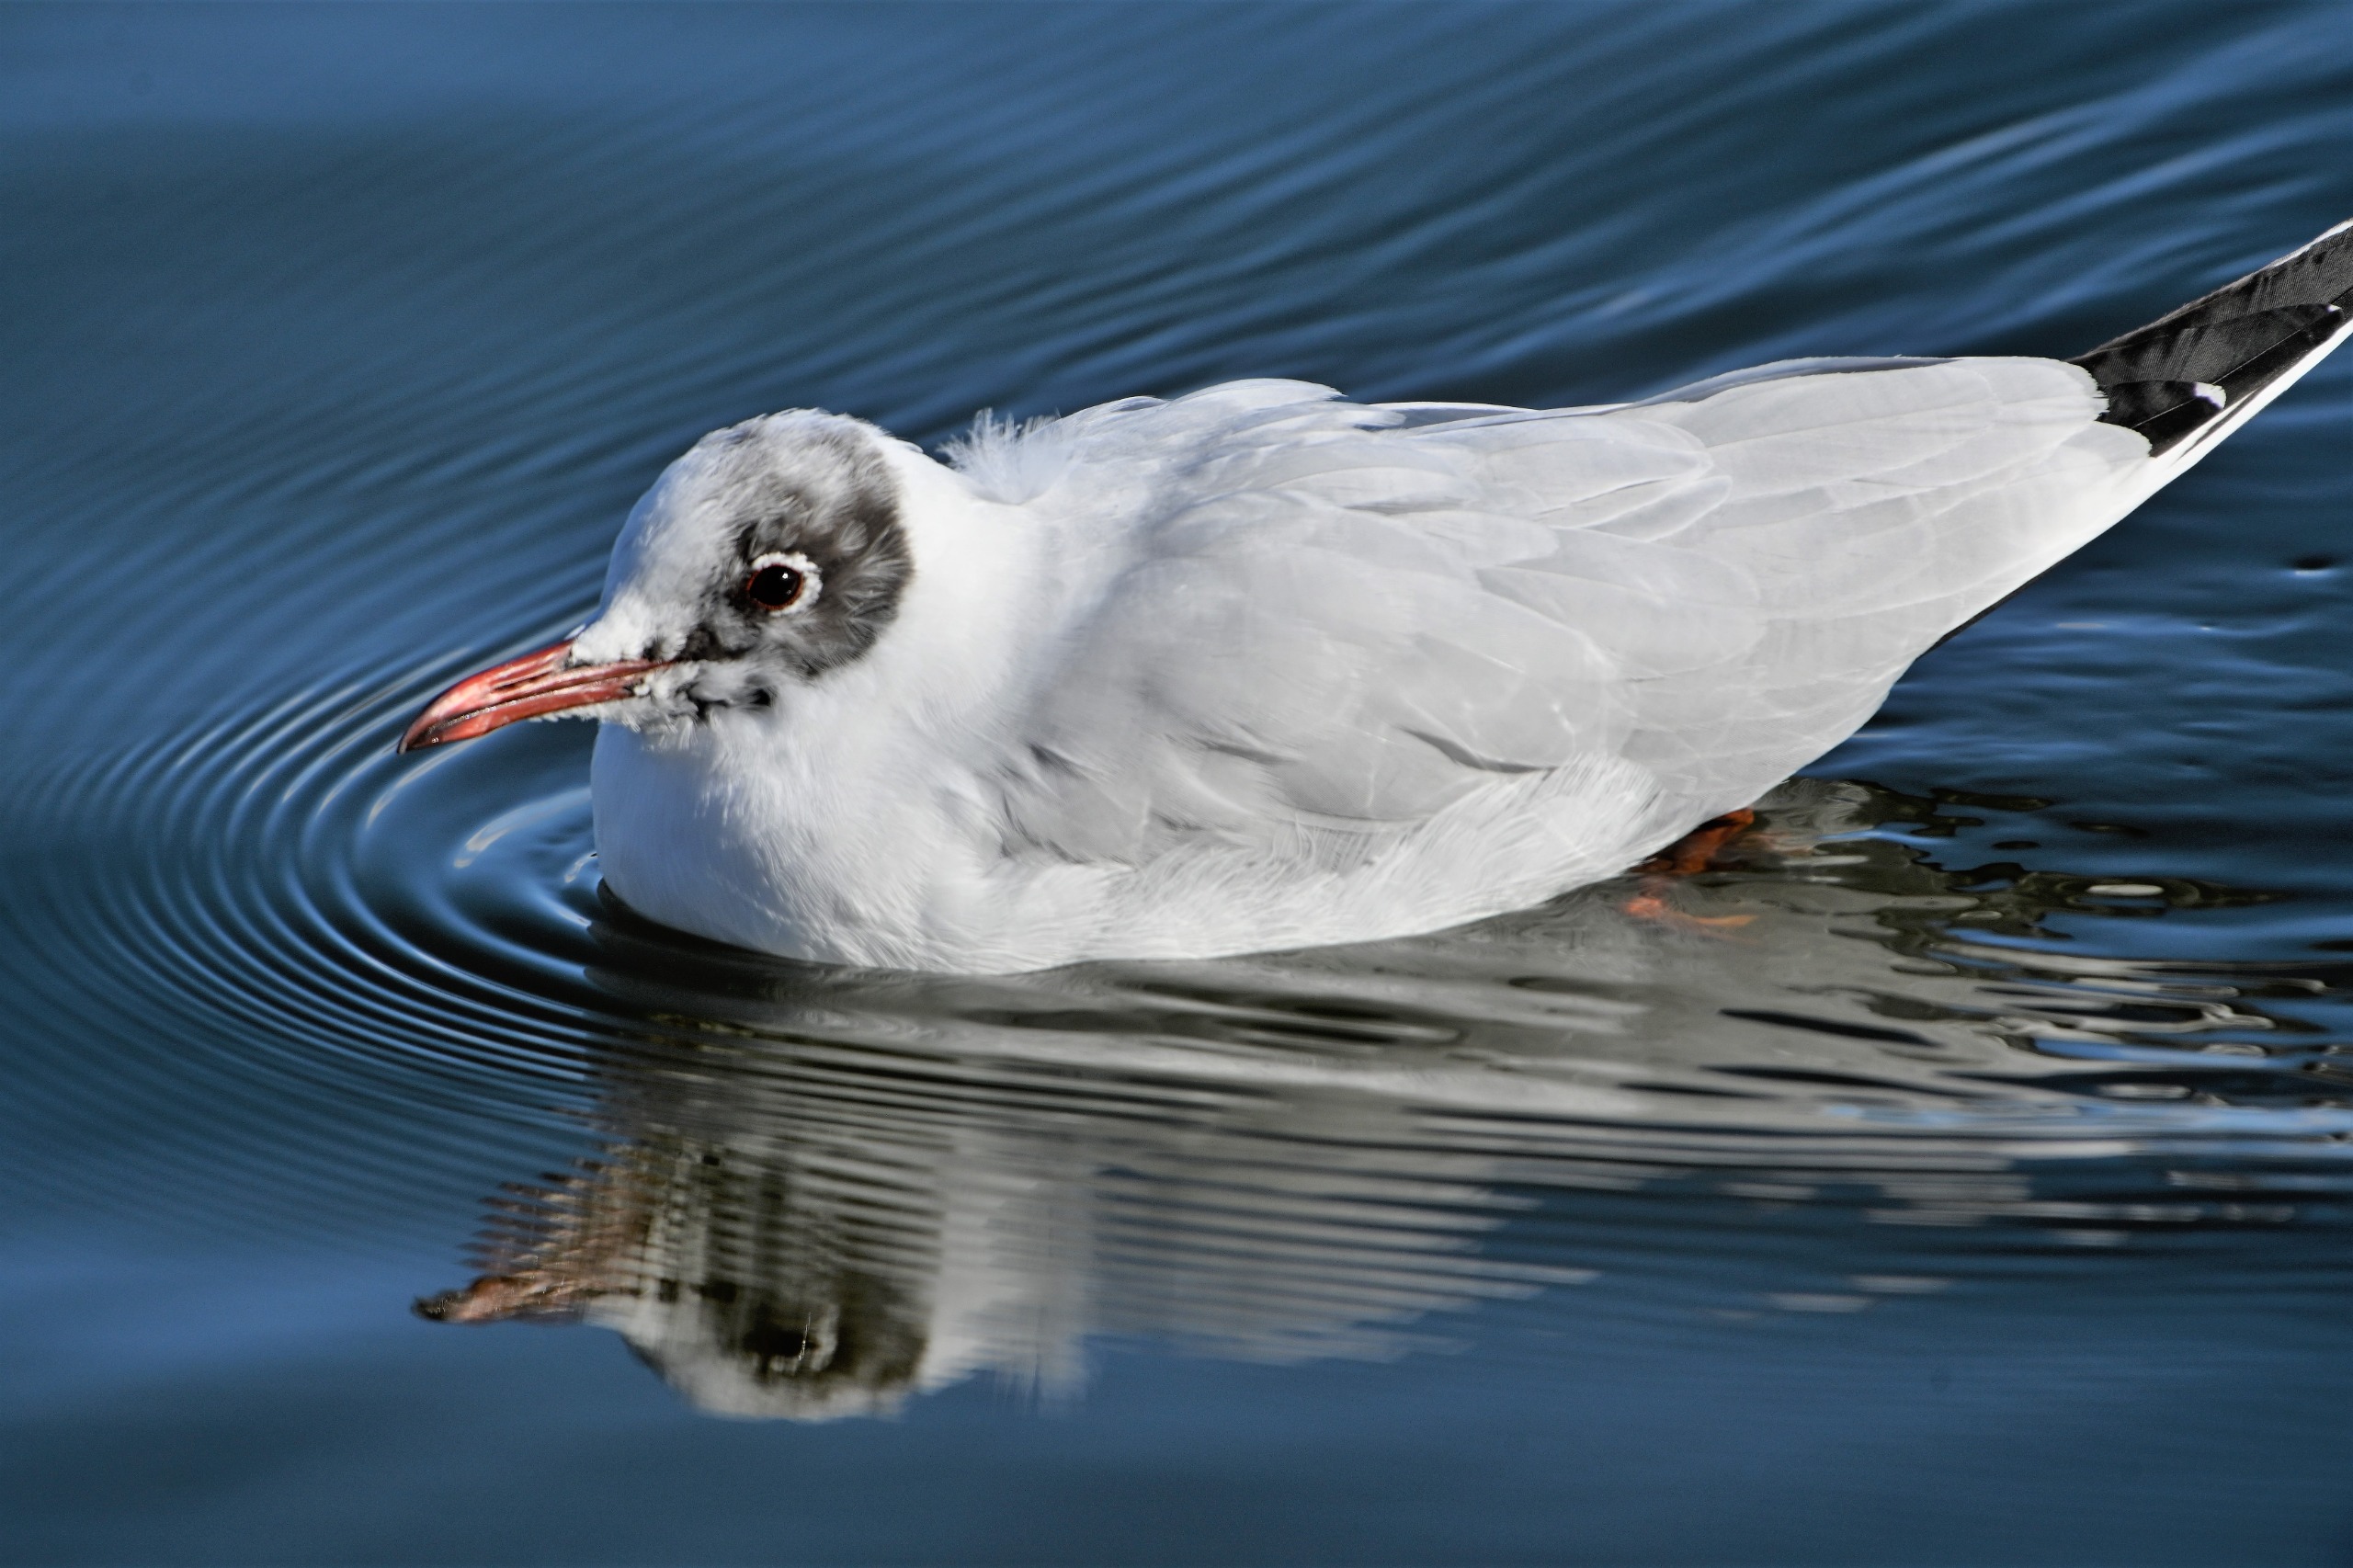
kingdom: Animalia
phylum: Chordata
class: Aves
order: Charadriiformes
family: Laridae
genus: Chroicocephalus
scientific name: Chroicocephalus ridibundus
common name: Hættemåge
